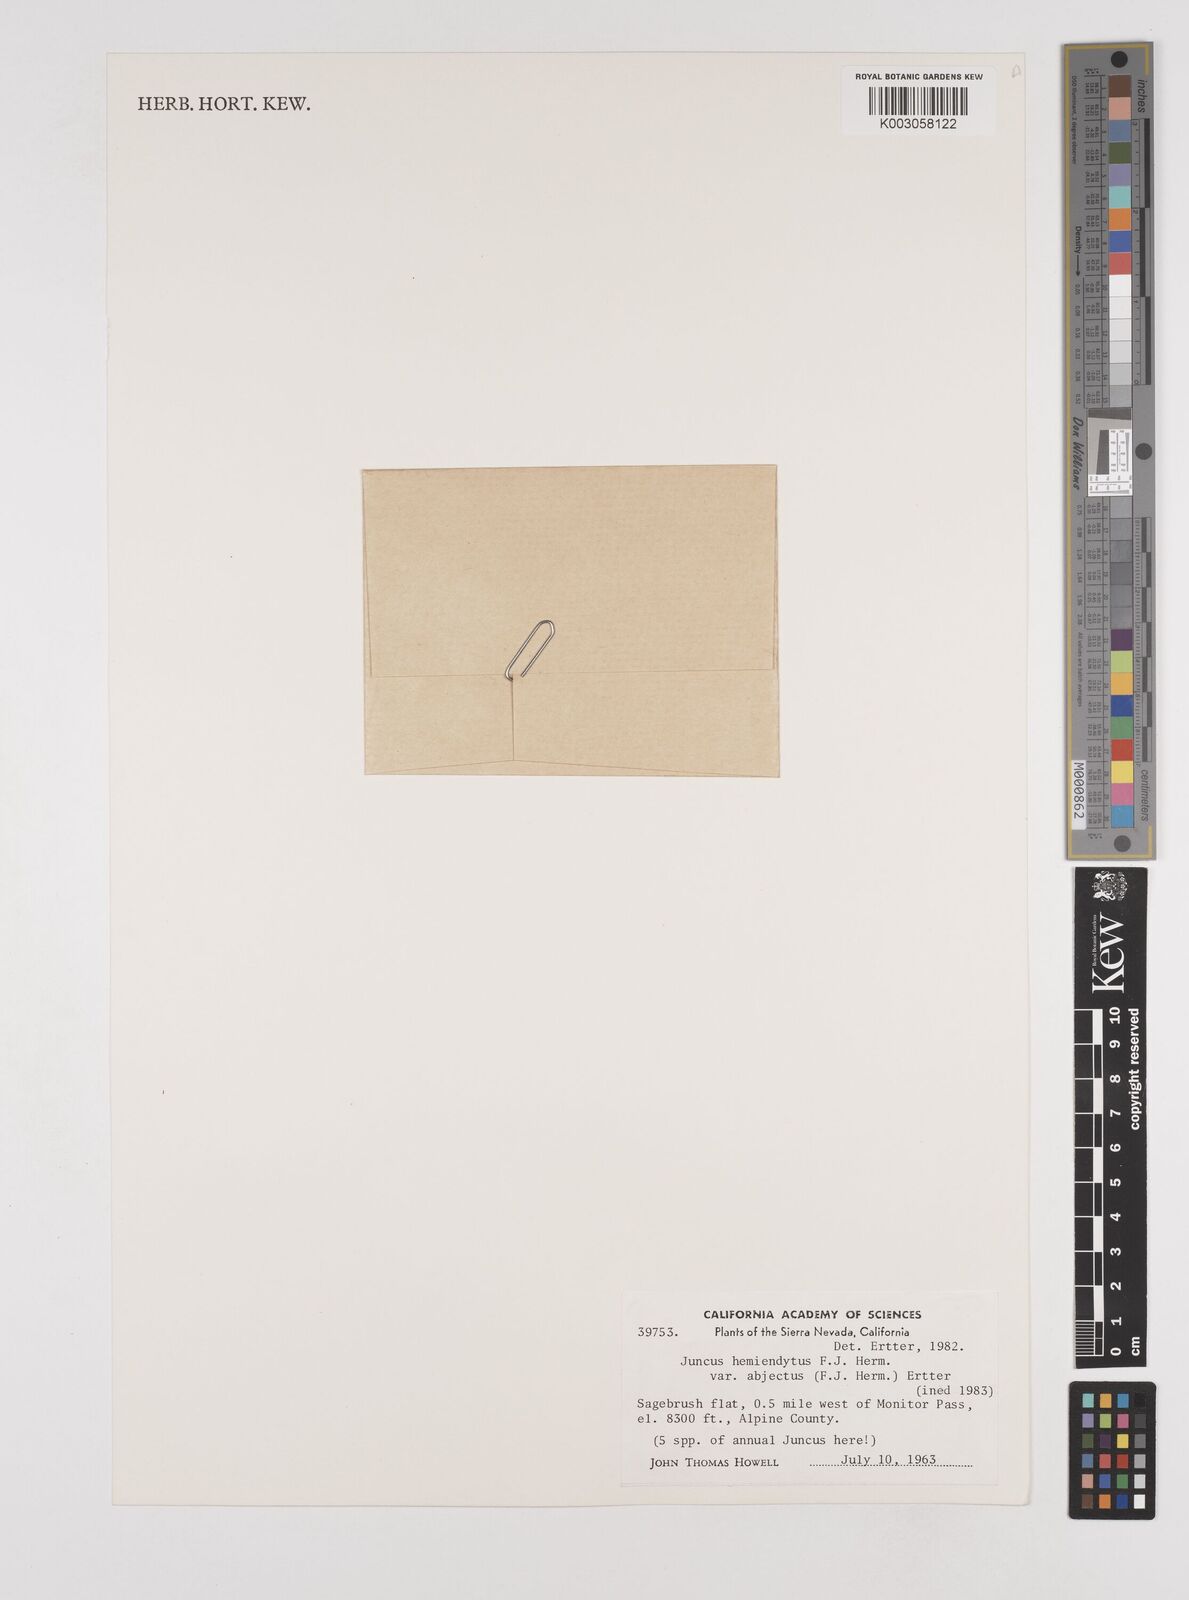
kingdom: Plantae
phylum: Tracheophyta
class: Liliopsida
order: Poales
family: Juncaceae
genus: Juncus
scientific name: Juncus hemiendytus
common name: Hermann's dwarf rush
